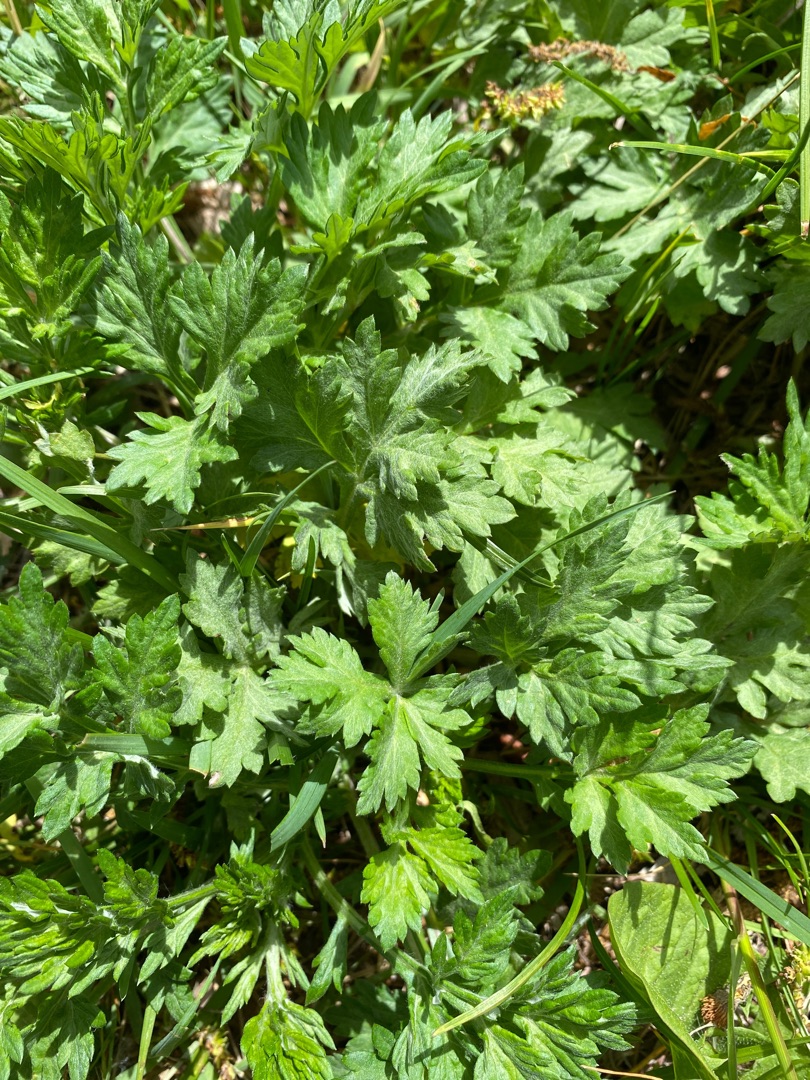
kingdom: Plantae
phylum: Tracheophyta
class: Magnoliopsida
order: Asterales
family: Asteraceae
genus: Artemisia
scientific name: Artemisia vulgaris
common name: Grå-bynke
